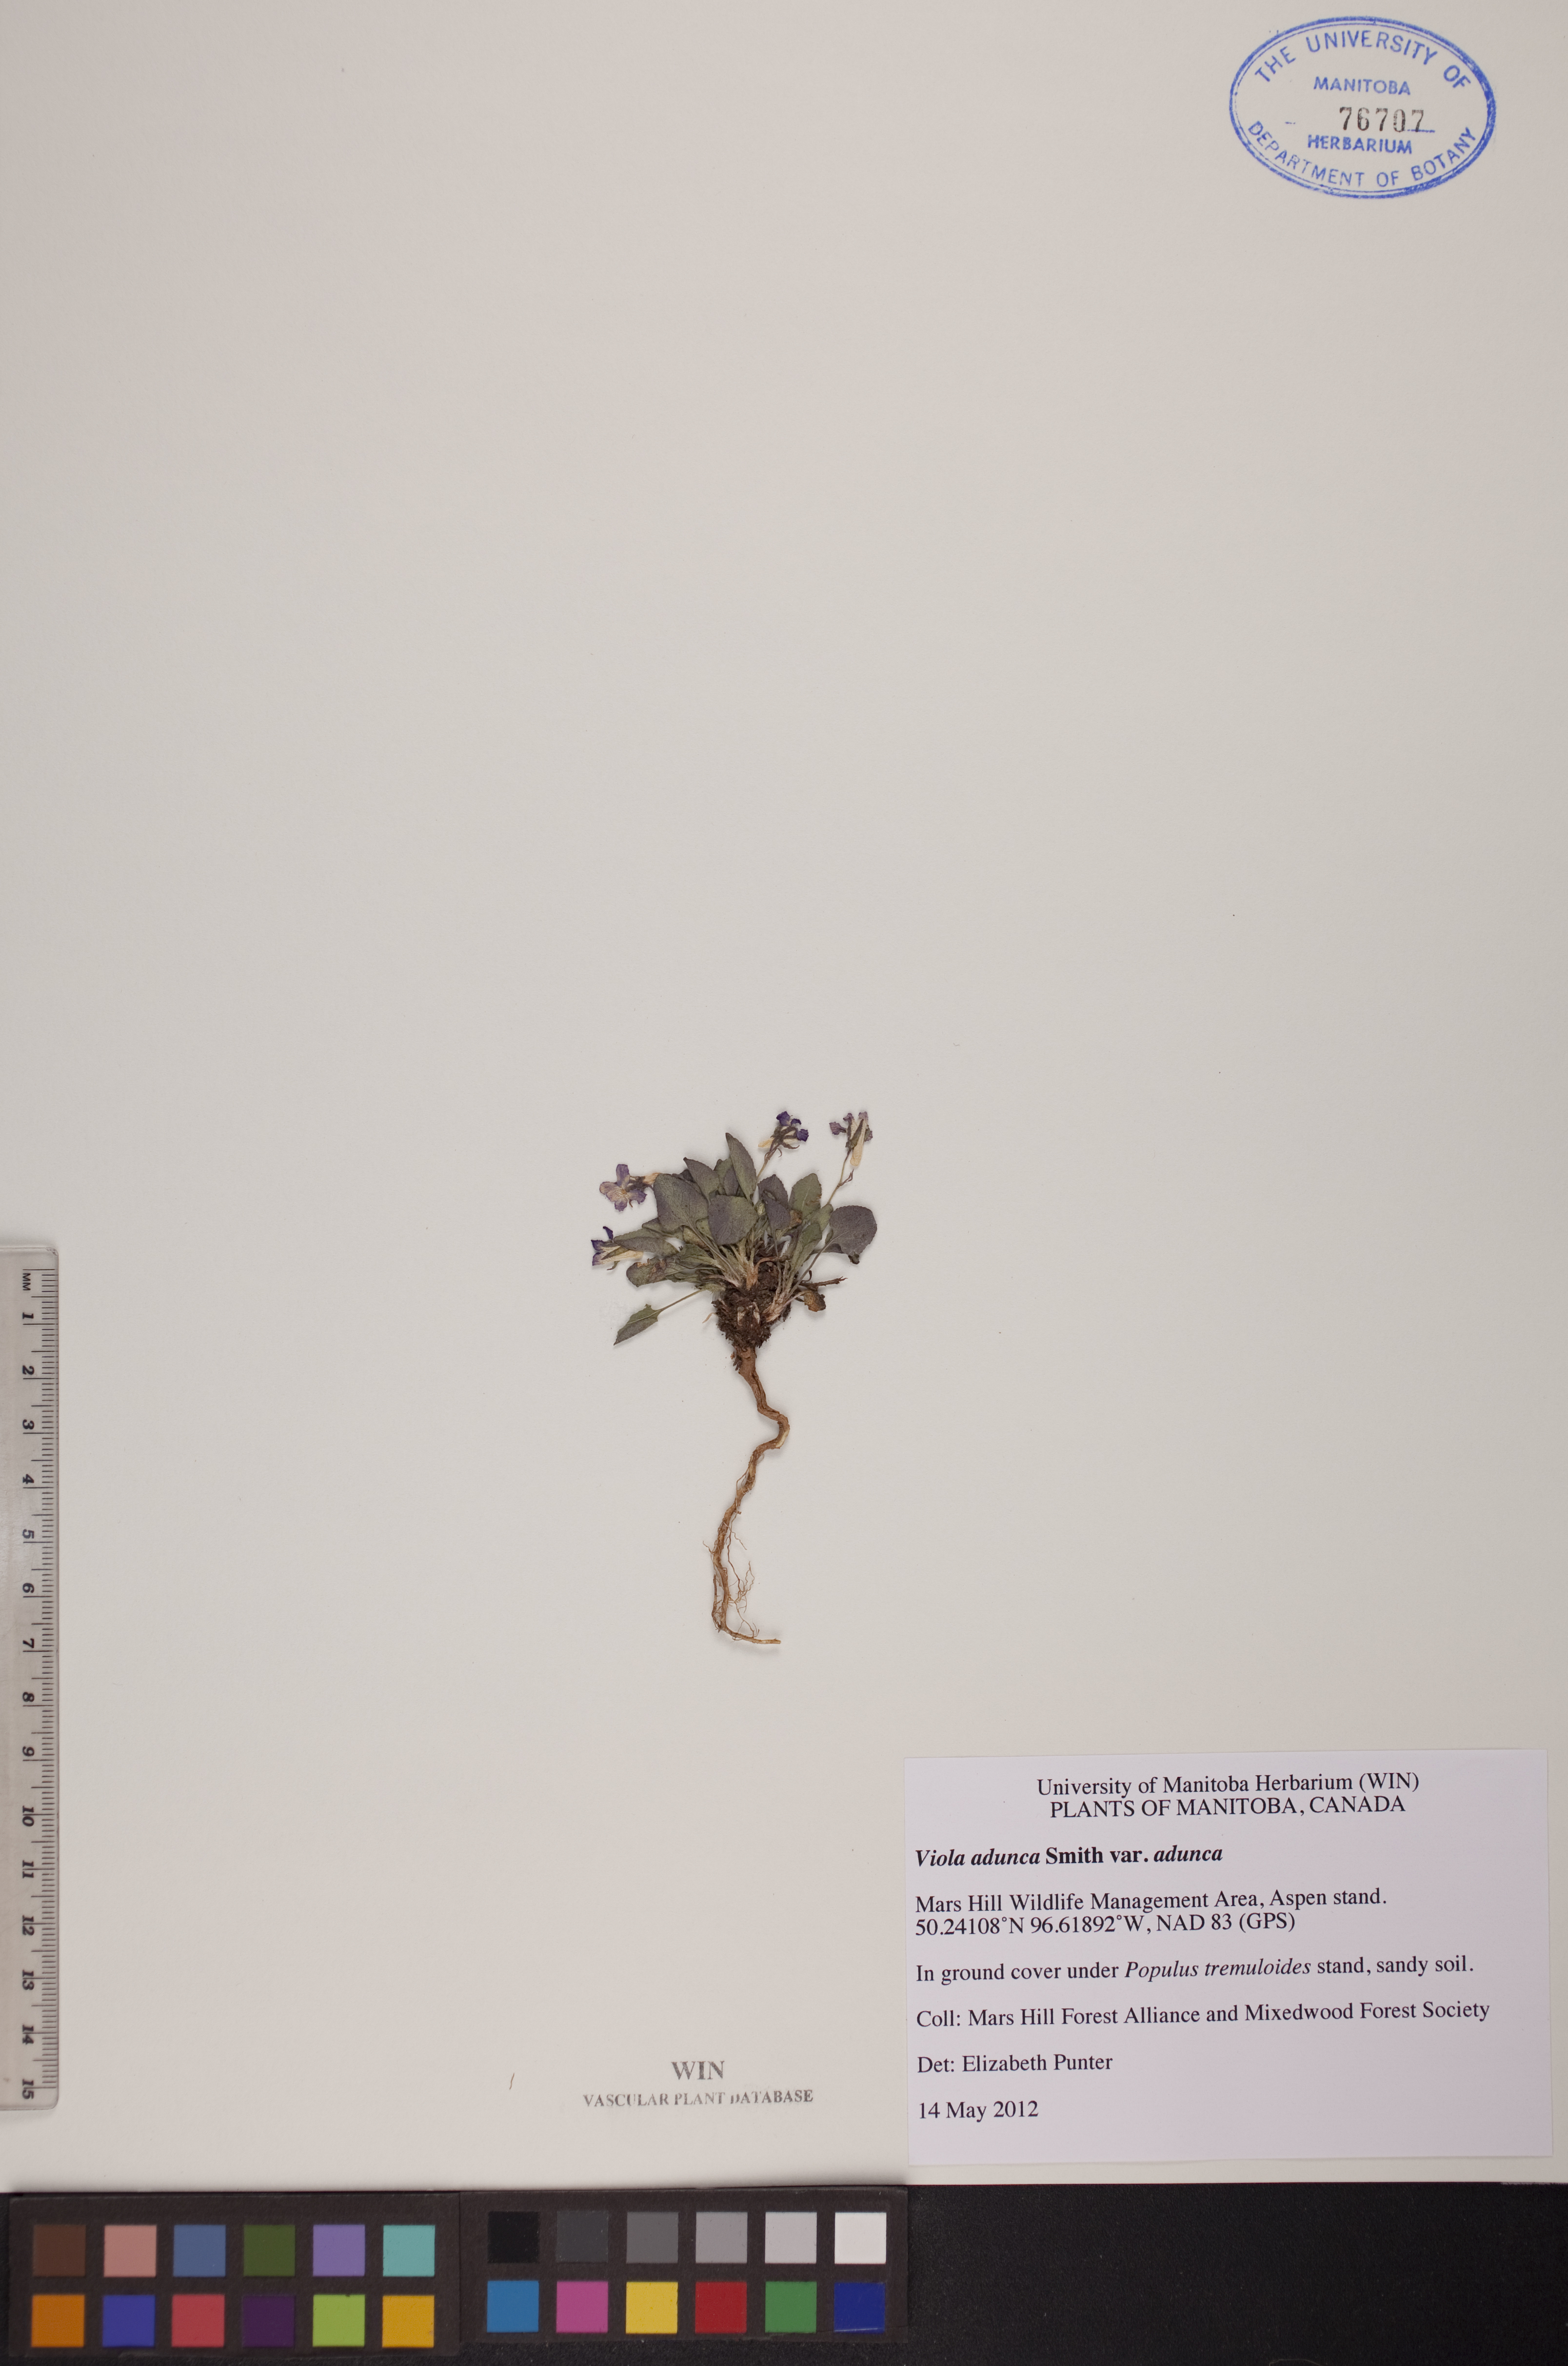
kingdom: Plantae
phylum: Tracheophyta
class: Magnoliopsida
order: Malpighiales
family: Violaceae
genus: Viola
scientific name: Viola adunca
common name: Sand violet
